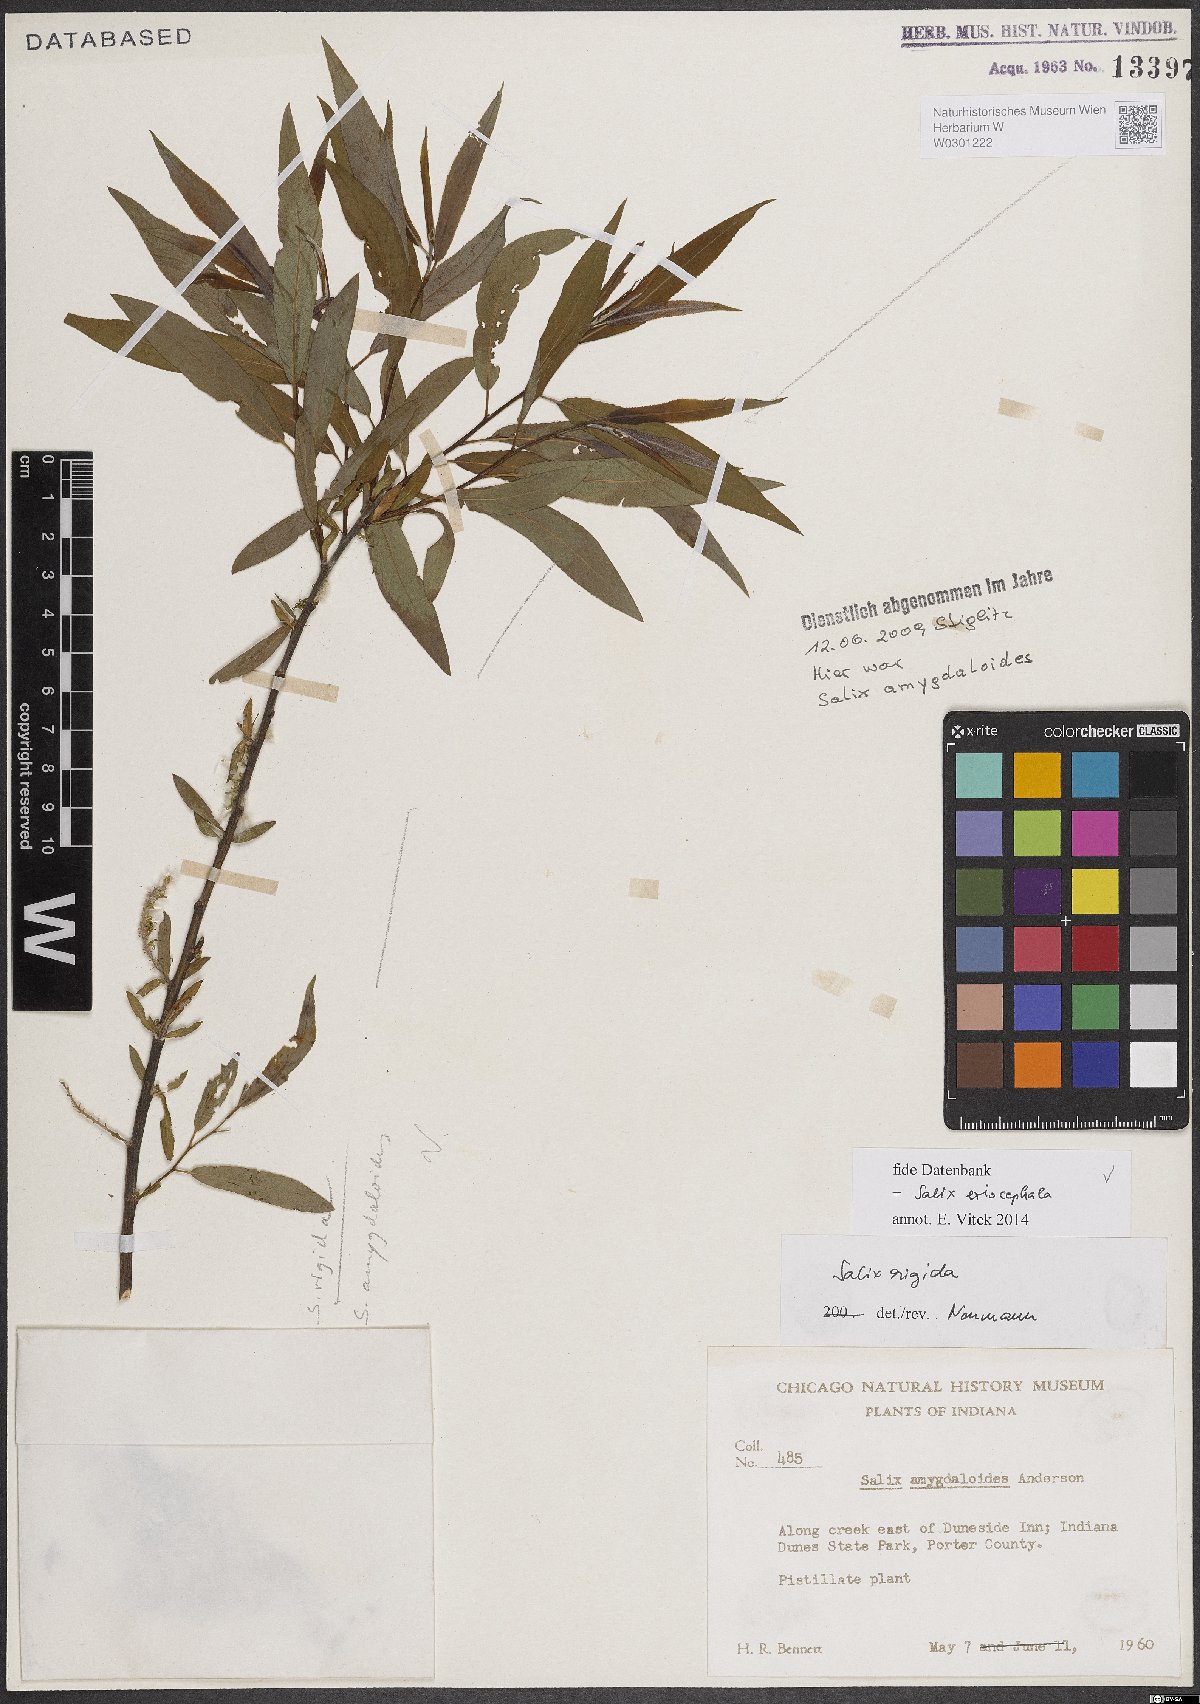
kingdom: Plantae
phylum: Tracheophyta
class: Magnoliopsida
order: Malpighiales
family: Salicaceae
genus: Salix
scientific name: Salix eriocephala
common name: Heart-leaved willow
